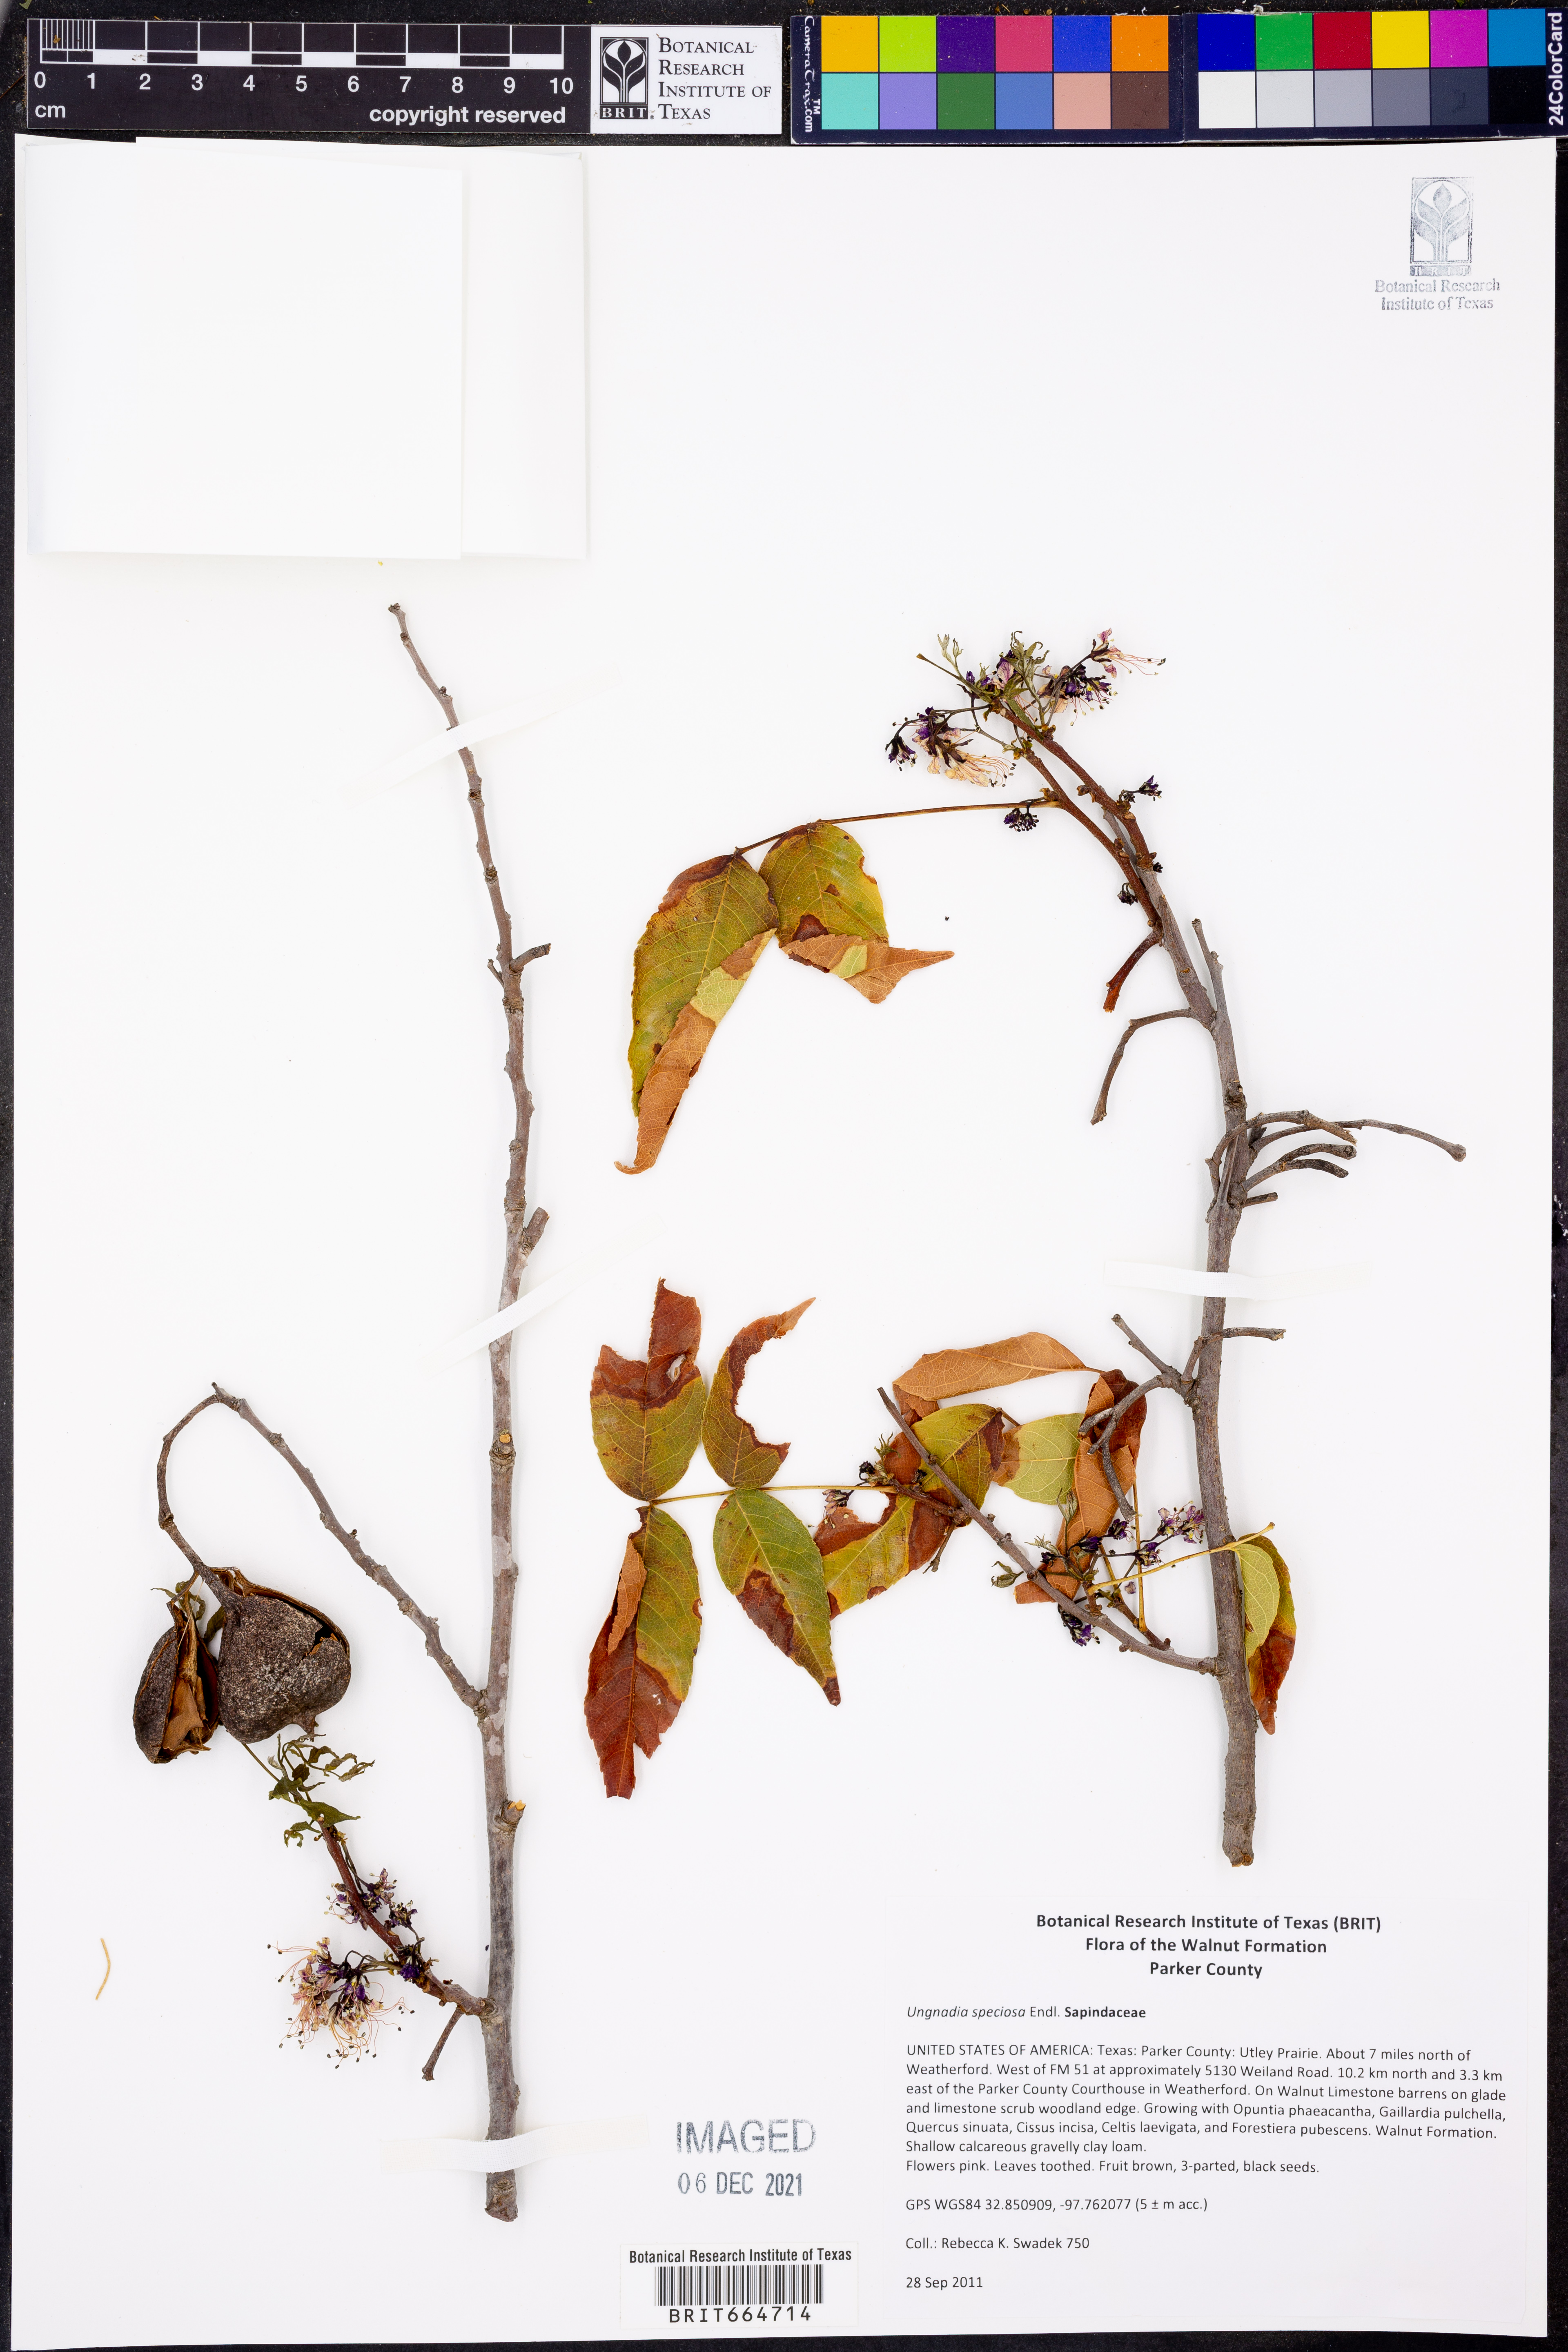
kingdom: Plantae
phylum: Tracheophyta
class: Magnoliopsida
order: Sapindales
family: Sapindaceae
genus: Ungnadia
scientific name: Ungnadia speciosa
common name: Texas-buckeye
